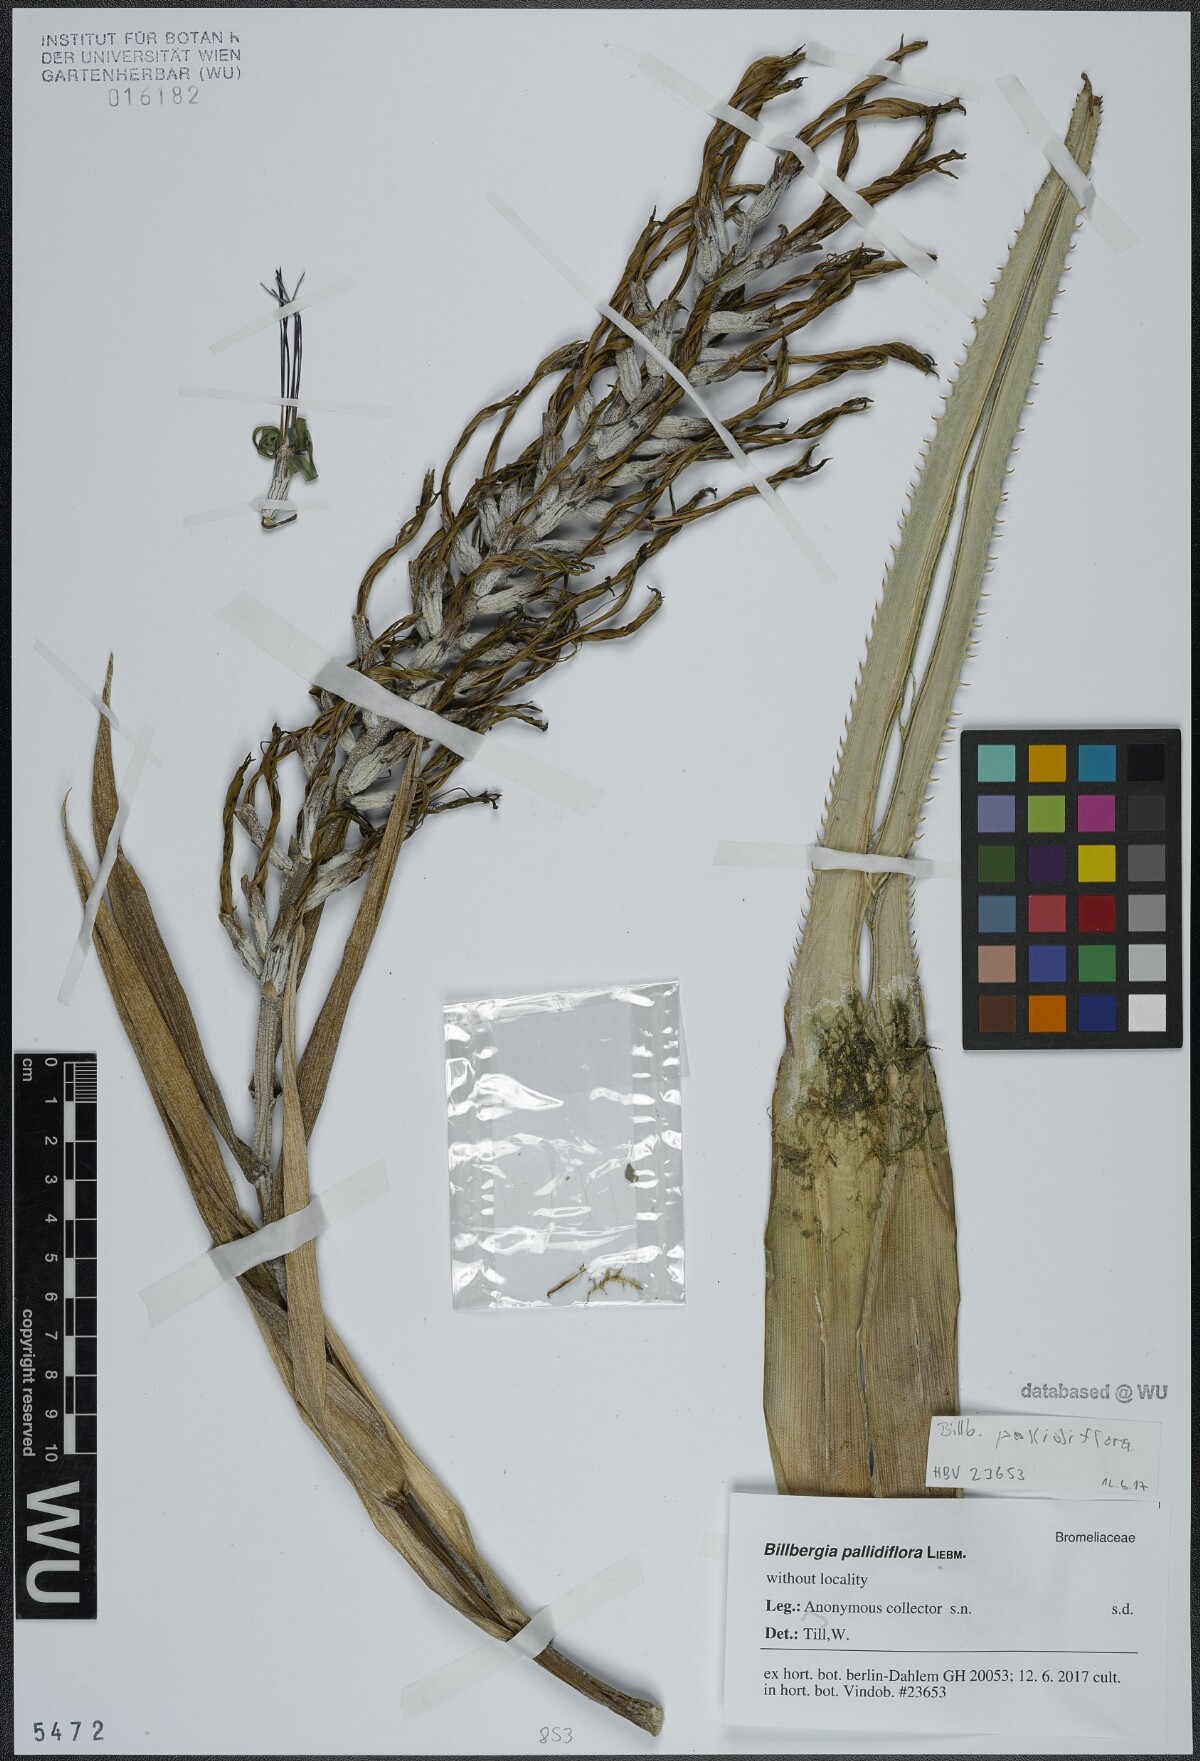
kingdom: Plantae
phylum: Tracheophyta
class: Liliopsida
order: Poales
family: Bromeliaceae
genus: Billbergia
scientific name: Billbergia pallidiflora
